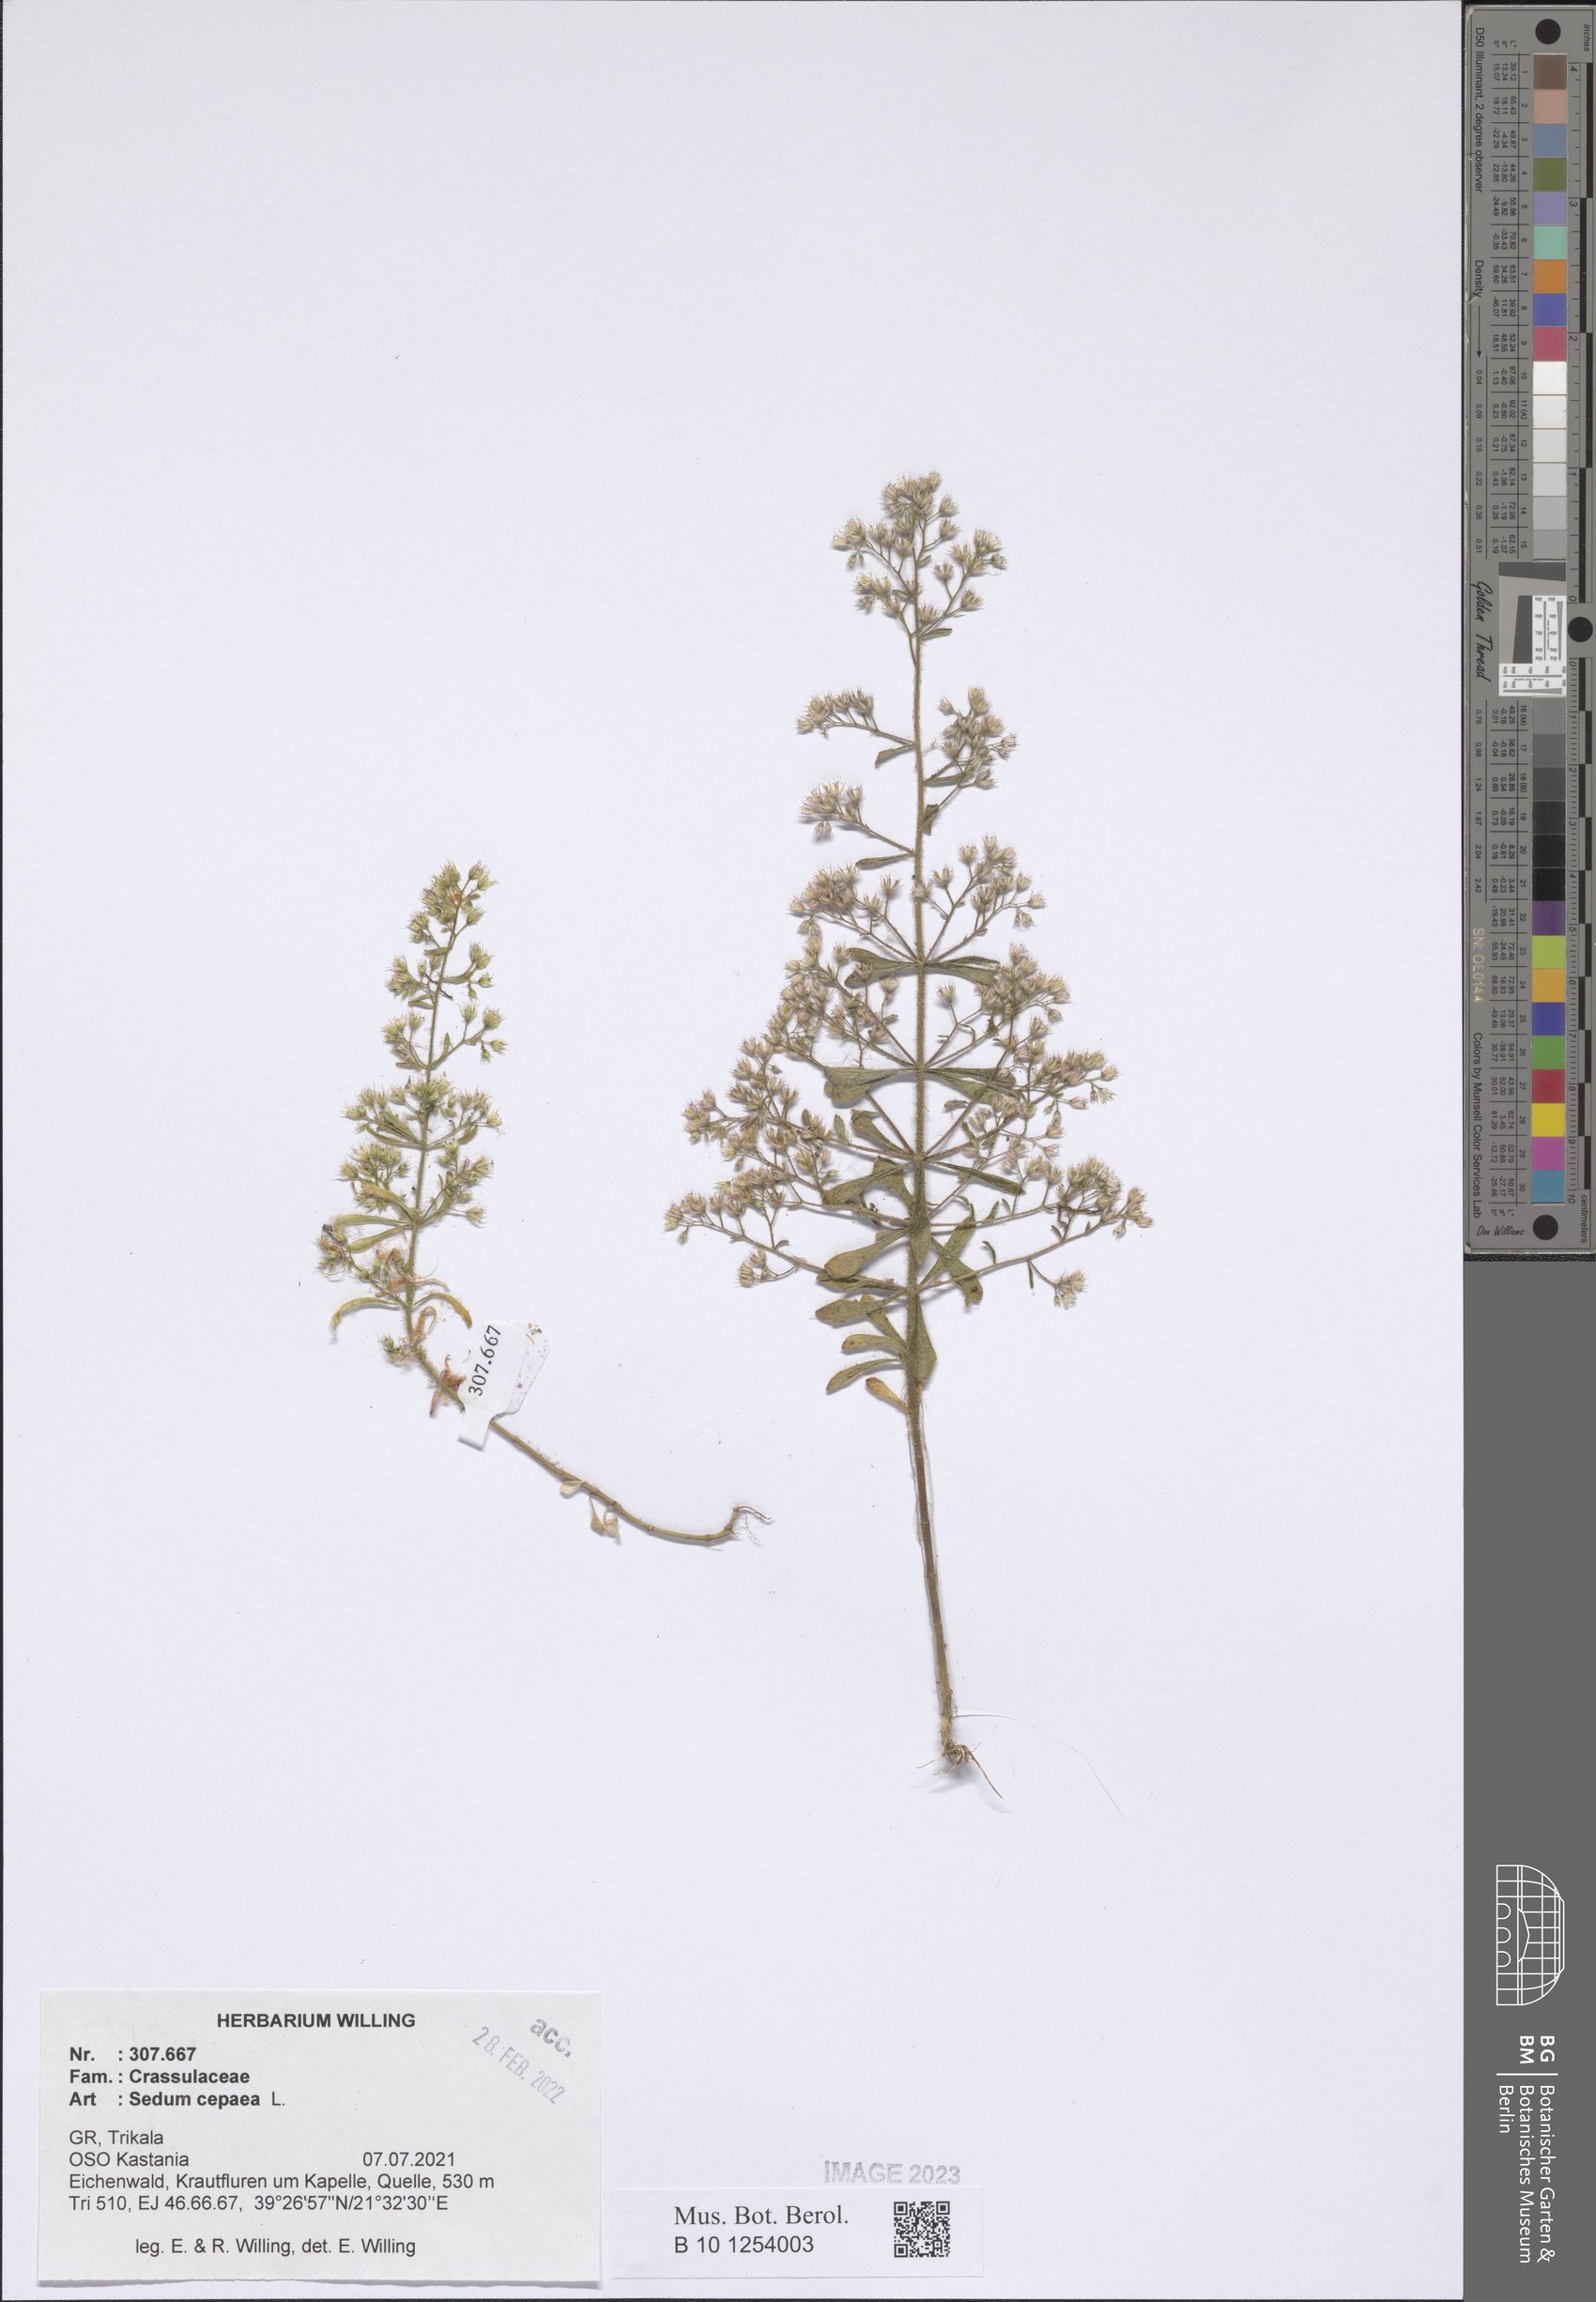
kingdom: Plantae
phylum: Tracheophyta
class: Magnoliopsida
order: Saxifragales
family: Crassulaceae
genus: Sedum
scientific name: Sedum cepaea
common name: Pink stonecrop
